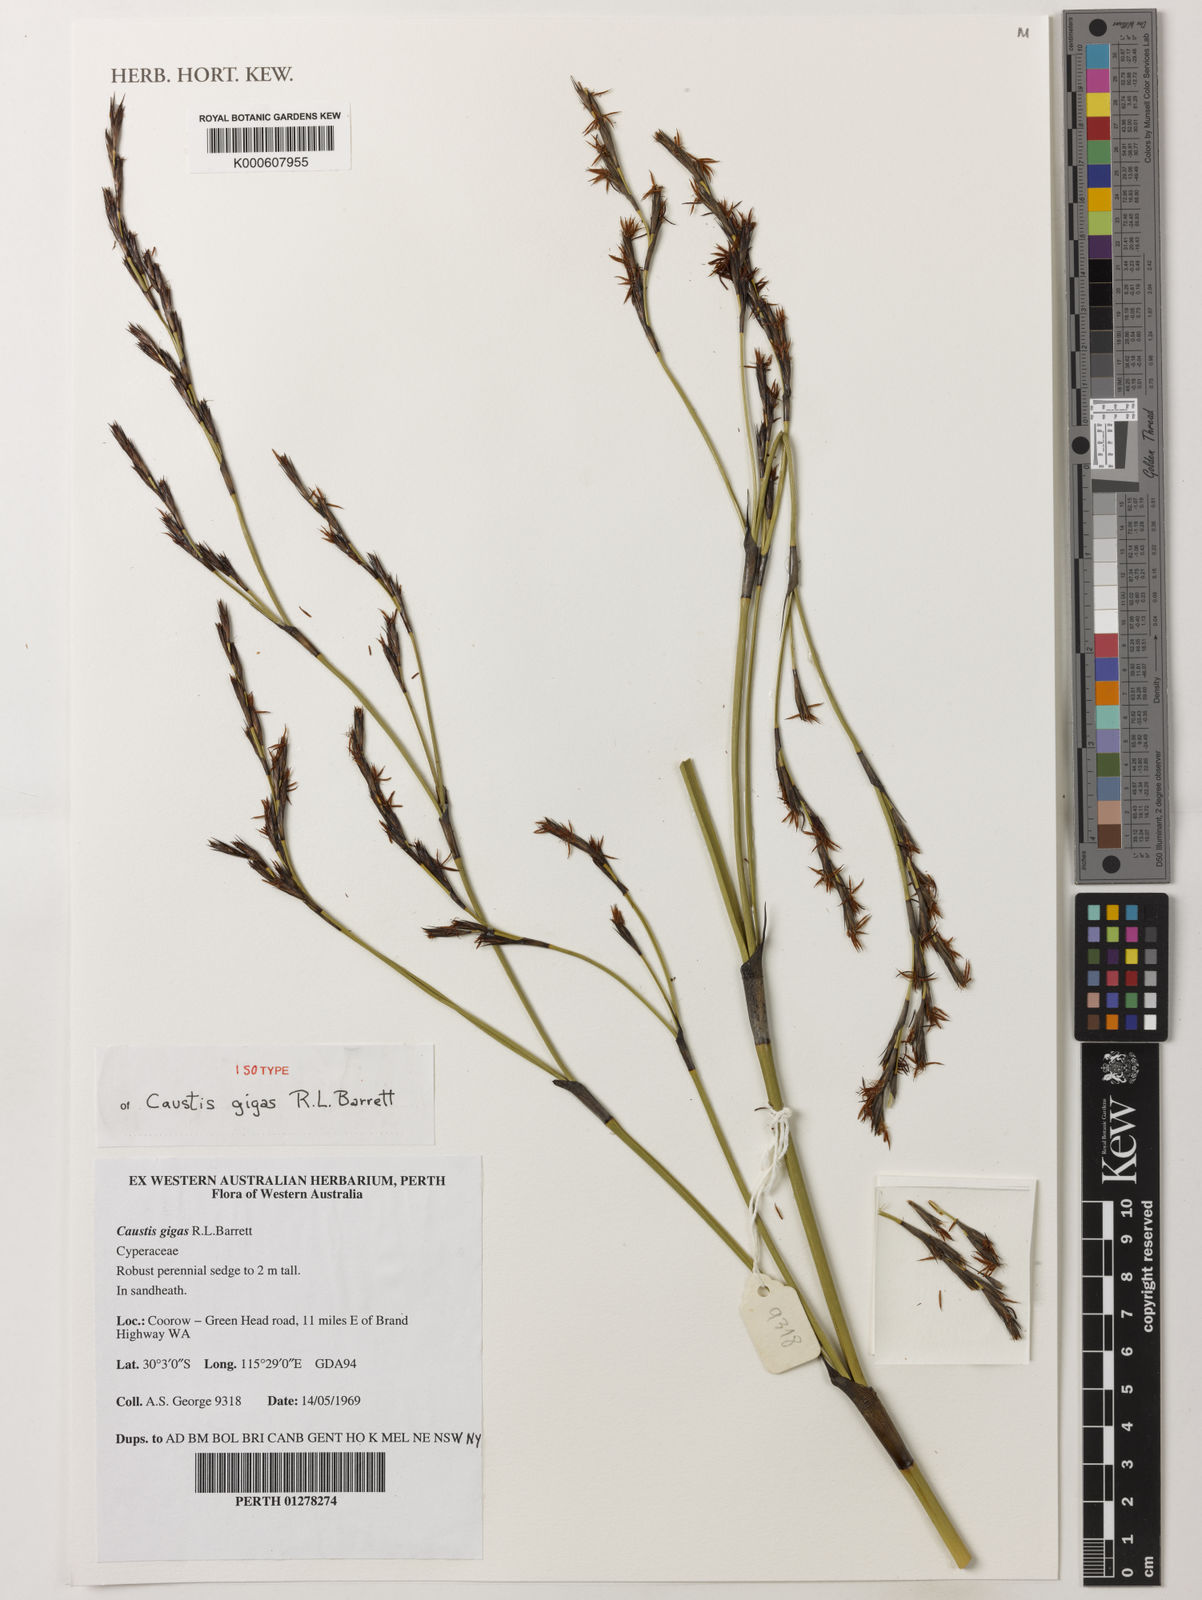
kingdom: Plantae
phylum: Tracheophyta
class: Liliopsida
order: Poales
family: Cyperaceae
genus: Caustis
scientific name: Caustis
